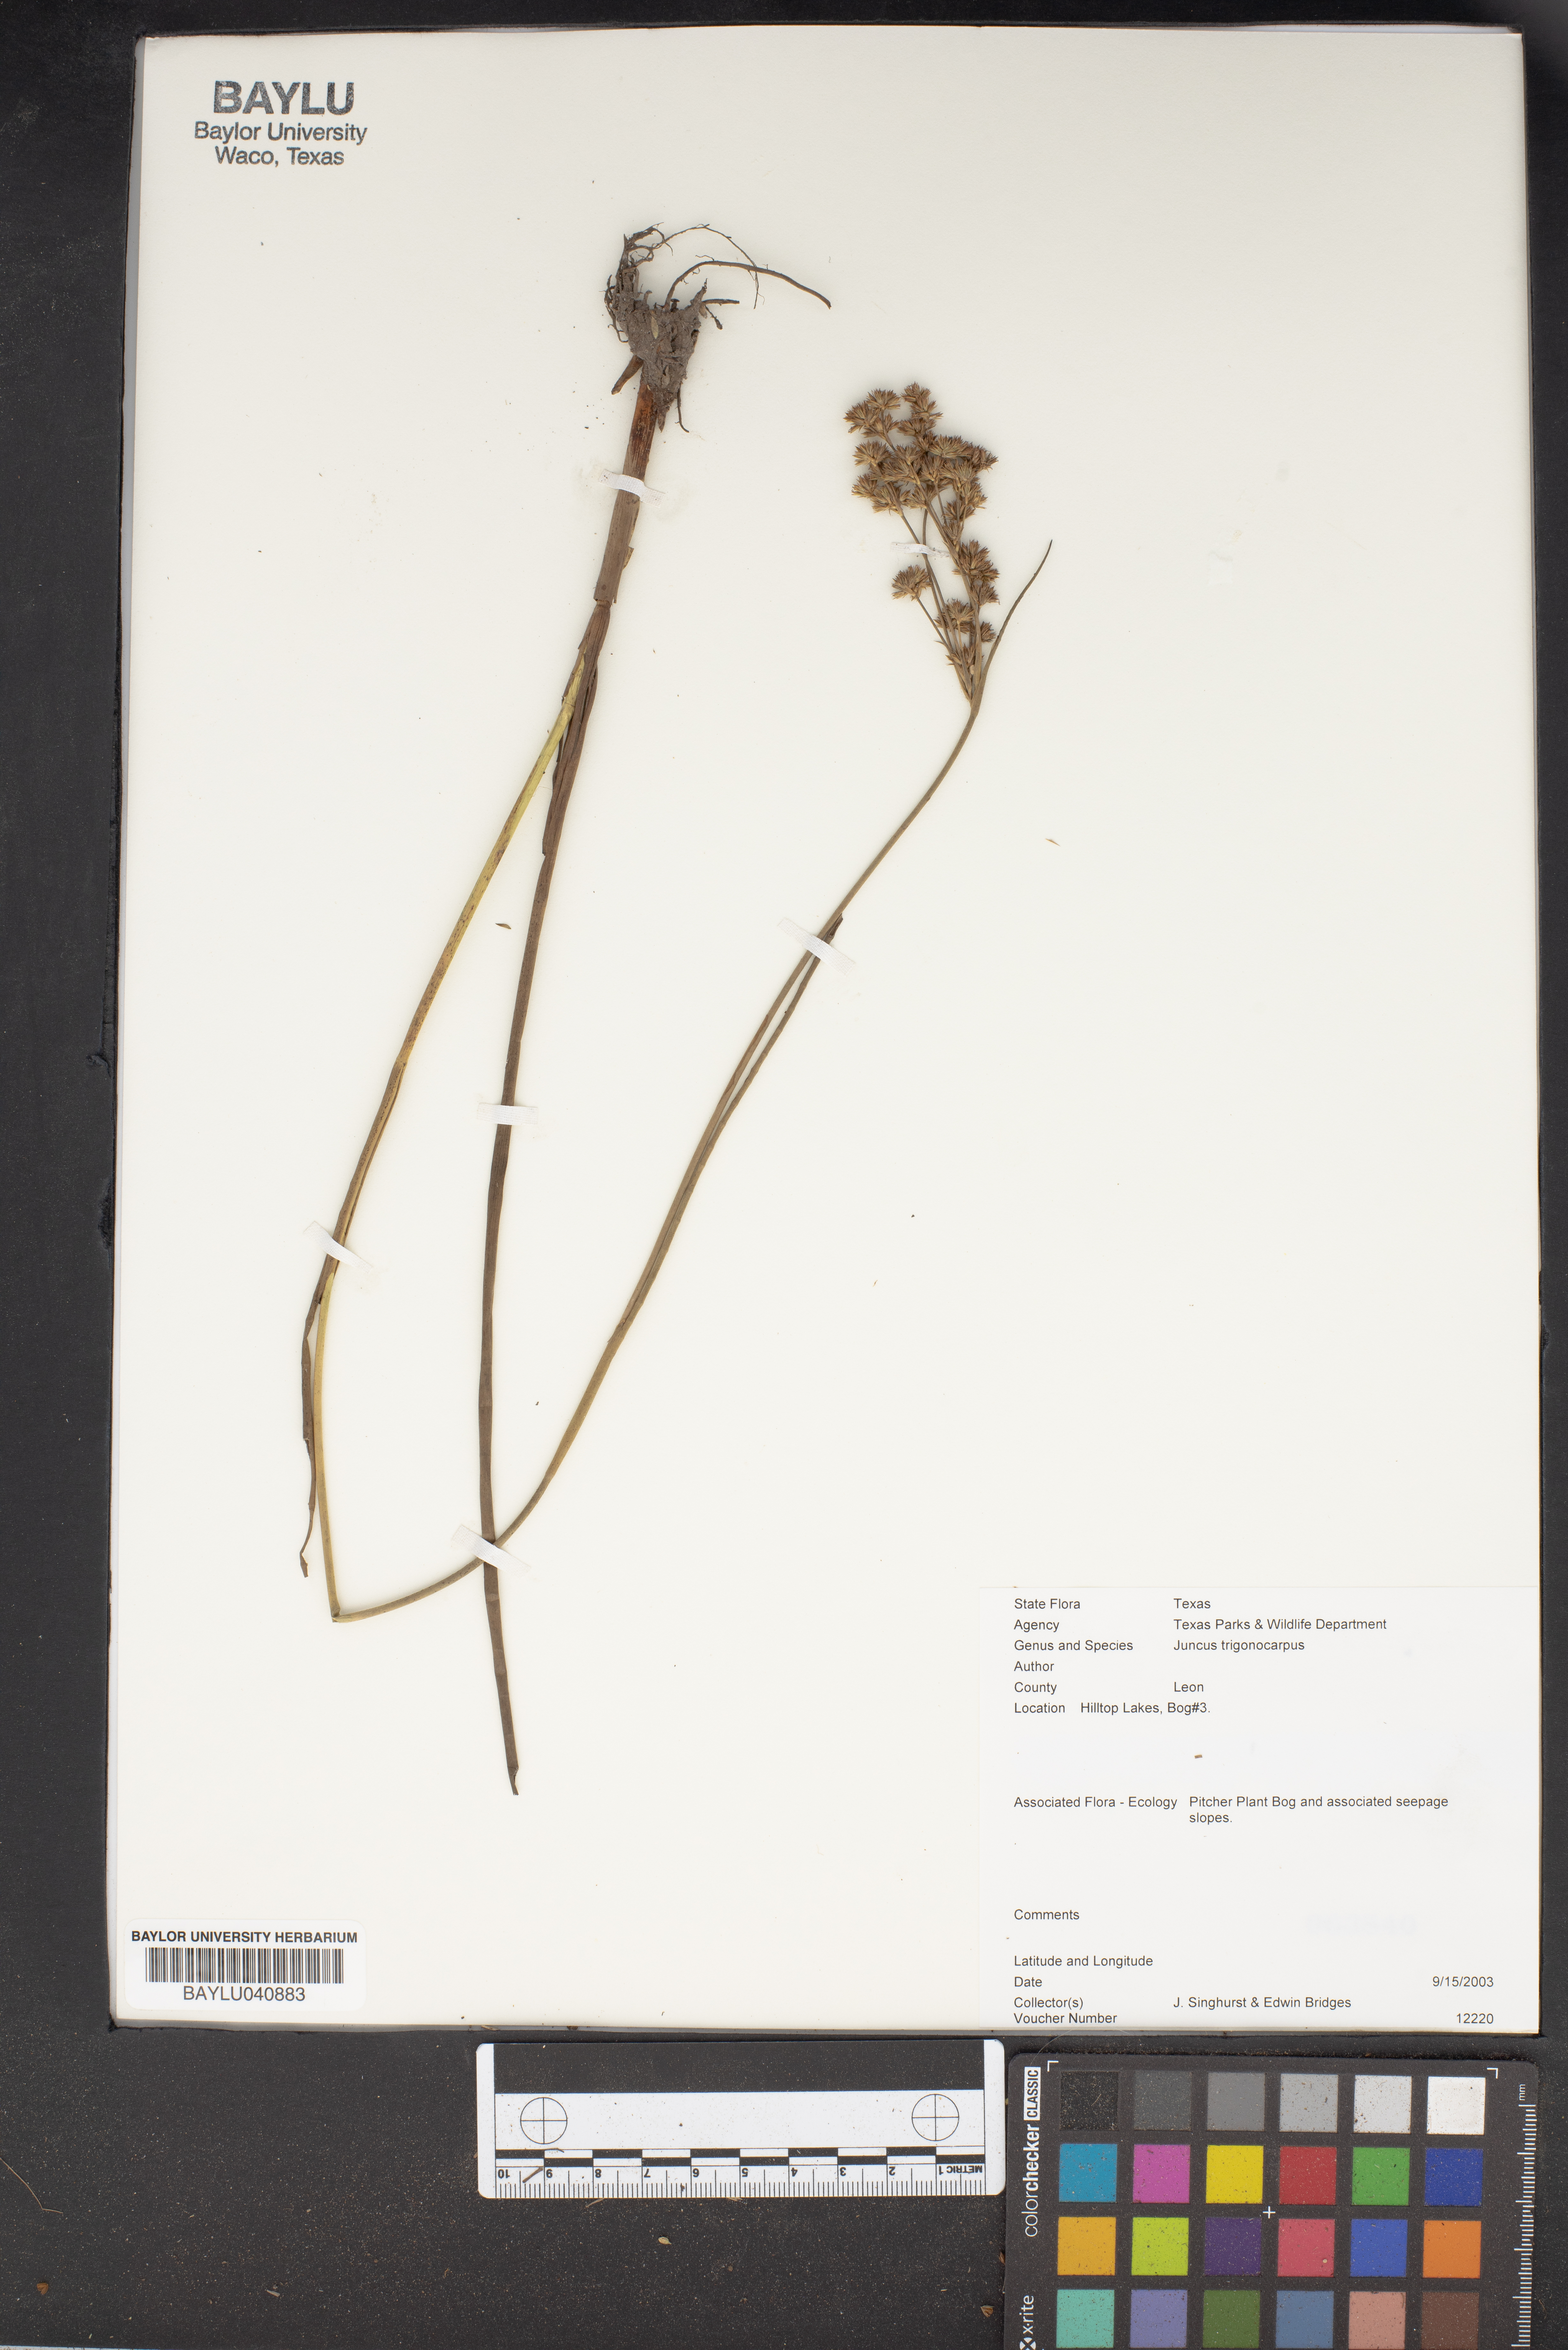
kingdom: Plantae
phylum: Tracheophyta
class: Liliopsida
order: Poales
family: Juncaceae
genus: Juncus
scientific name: Juncus trigonocarpus
